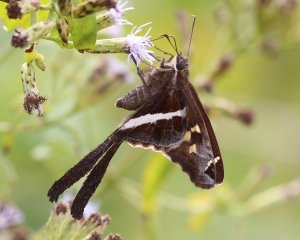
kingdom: Animalia
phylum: Arthropoda
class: Insecta
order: Lepidoptera
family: Hesperiidae
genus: Chioides
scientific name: Chioides catillus
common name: White-striped Longtail
